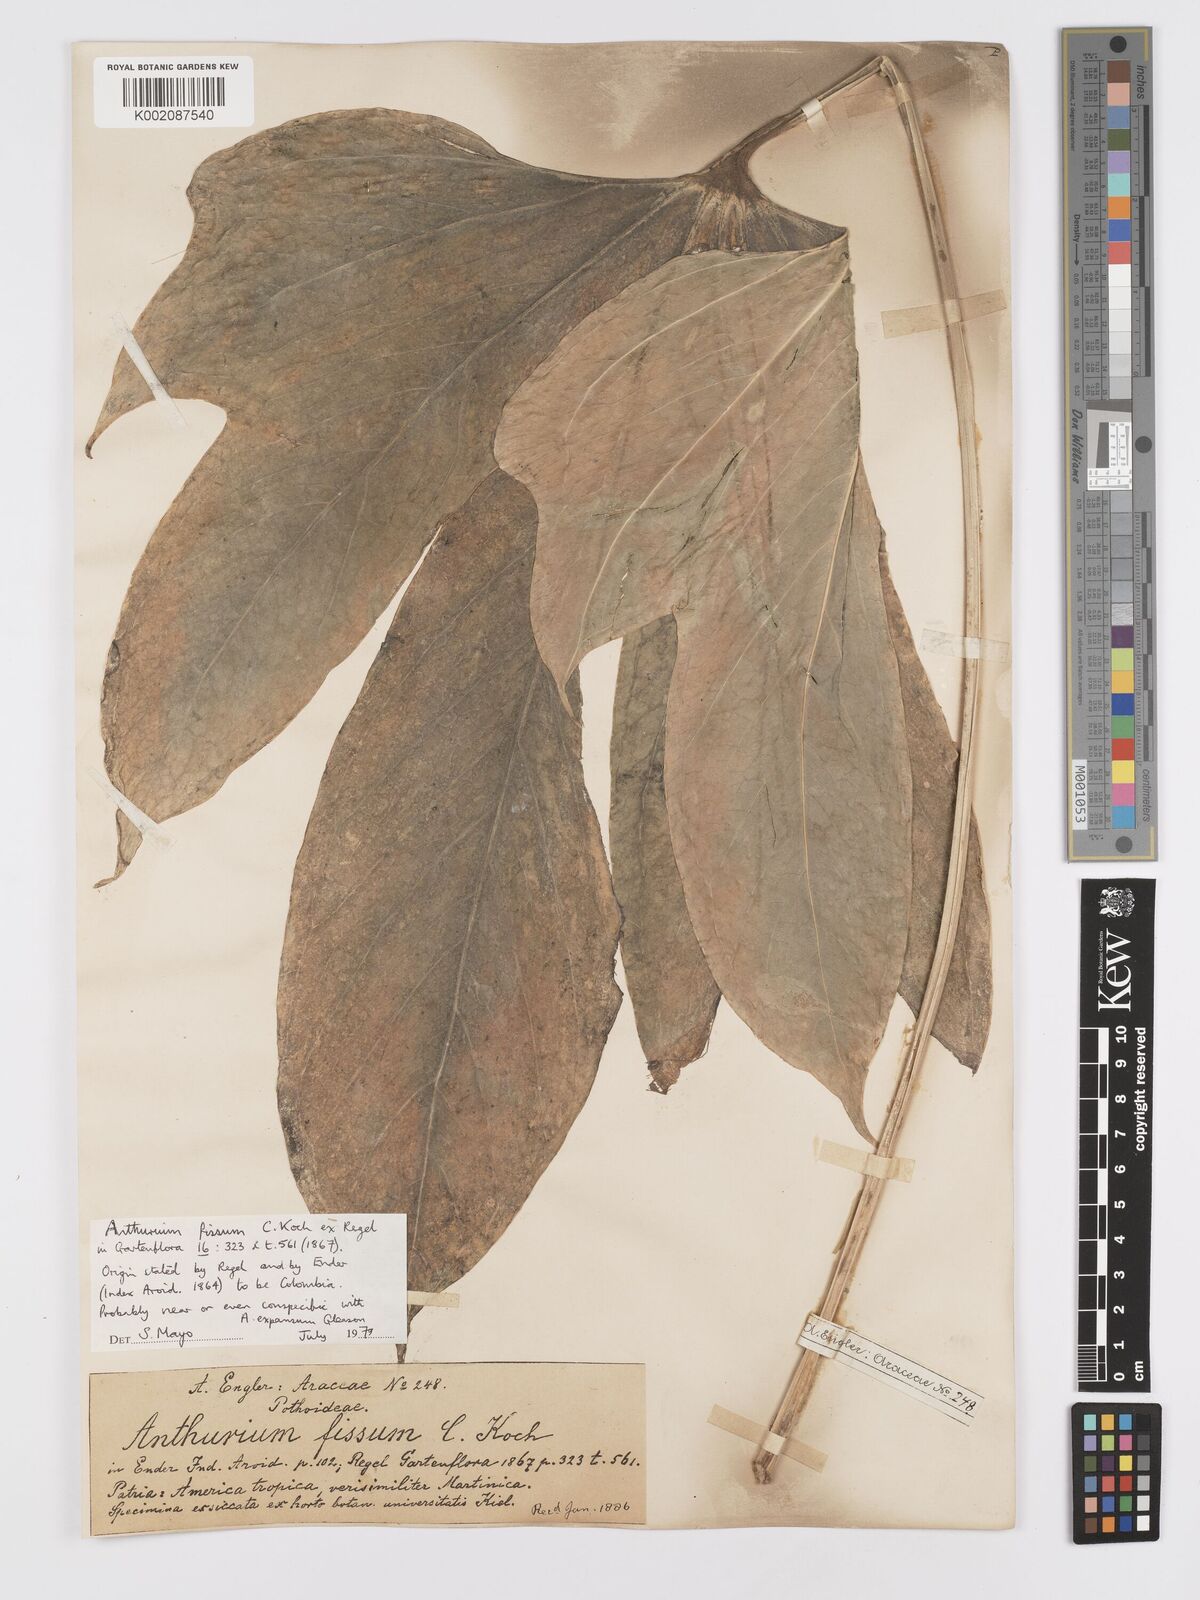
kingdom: Plantae
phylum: Tracheophyta
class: Liliopsida
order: Alismatales
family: Araceae
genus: Anthurium
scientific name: Anthurium palmatum
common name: Mibi
